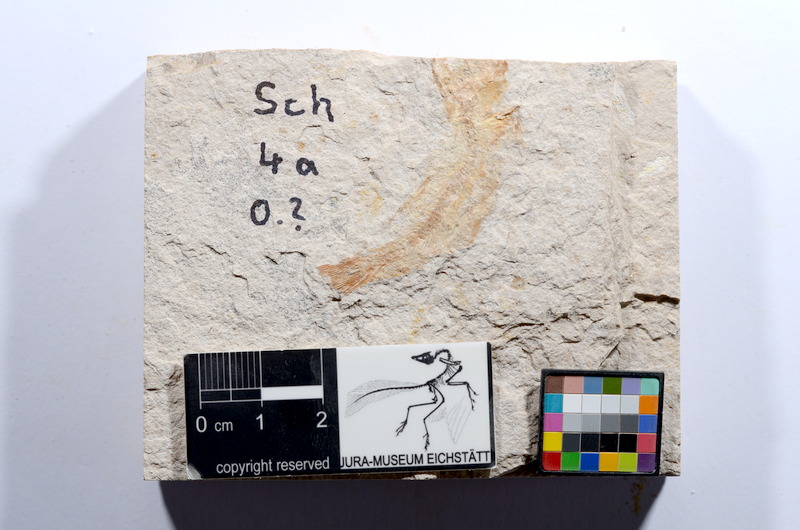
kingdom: Animalia
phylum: Chordata
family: Ascalaboidae
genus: Tharsis
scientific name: Tharsis dubius
